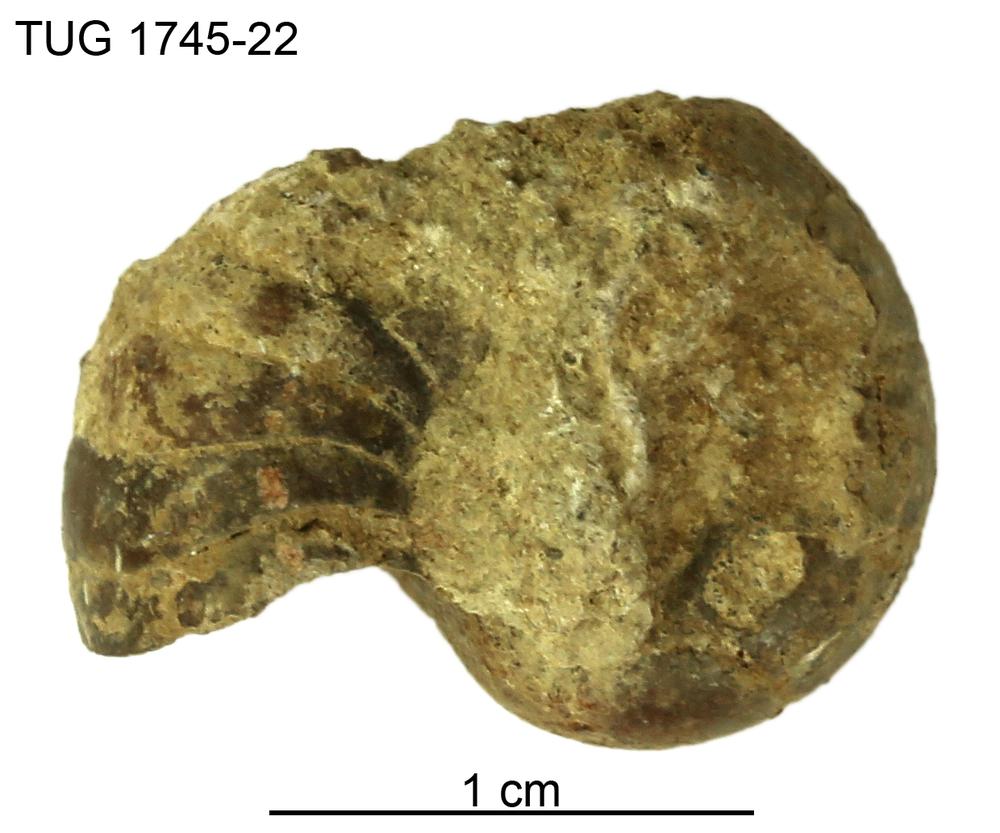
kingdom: Animalia
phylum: Mollusca
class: Cephalopoda
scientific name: Cephalopoda
